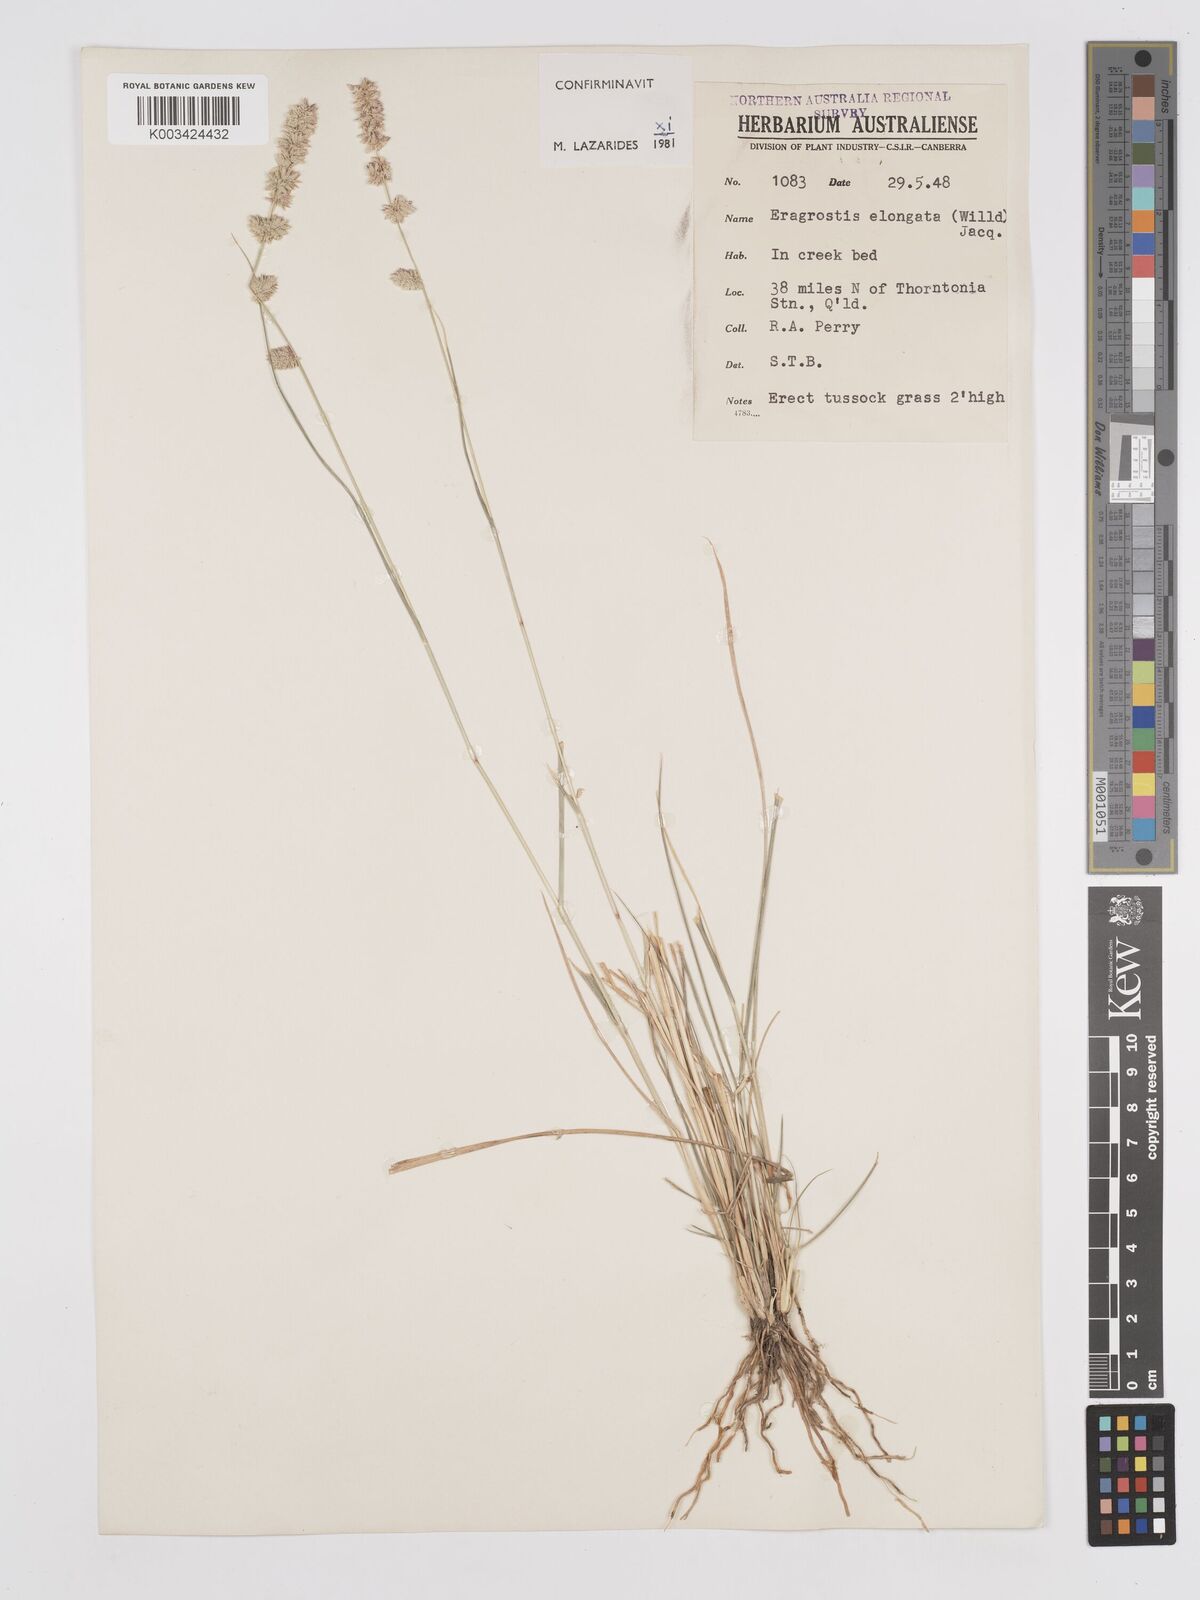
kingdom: Plantae
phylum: Tracheophyta
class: Liliopsida
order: Poales
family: Poaceae
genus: Eragrostis
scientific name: Eragrostis elongata
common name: Long lovegrass
